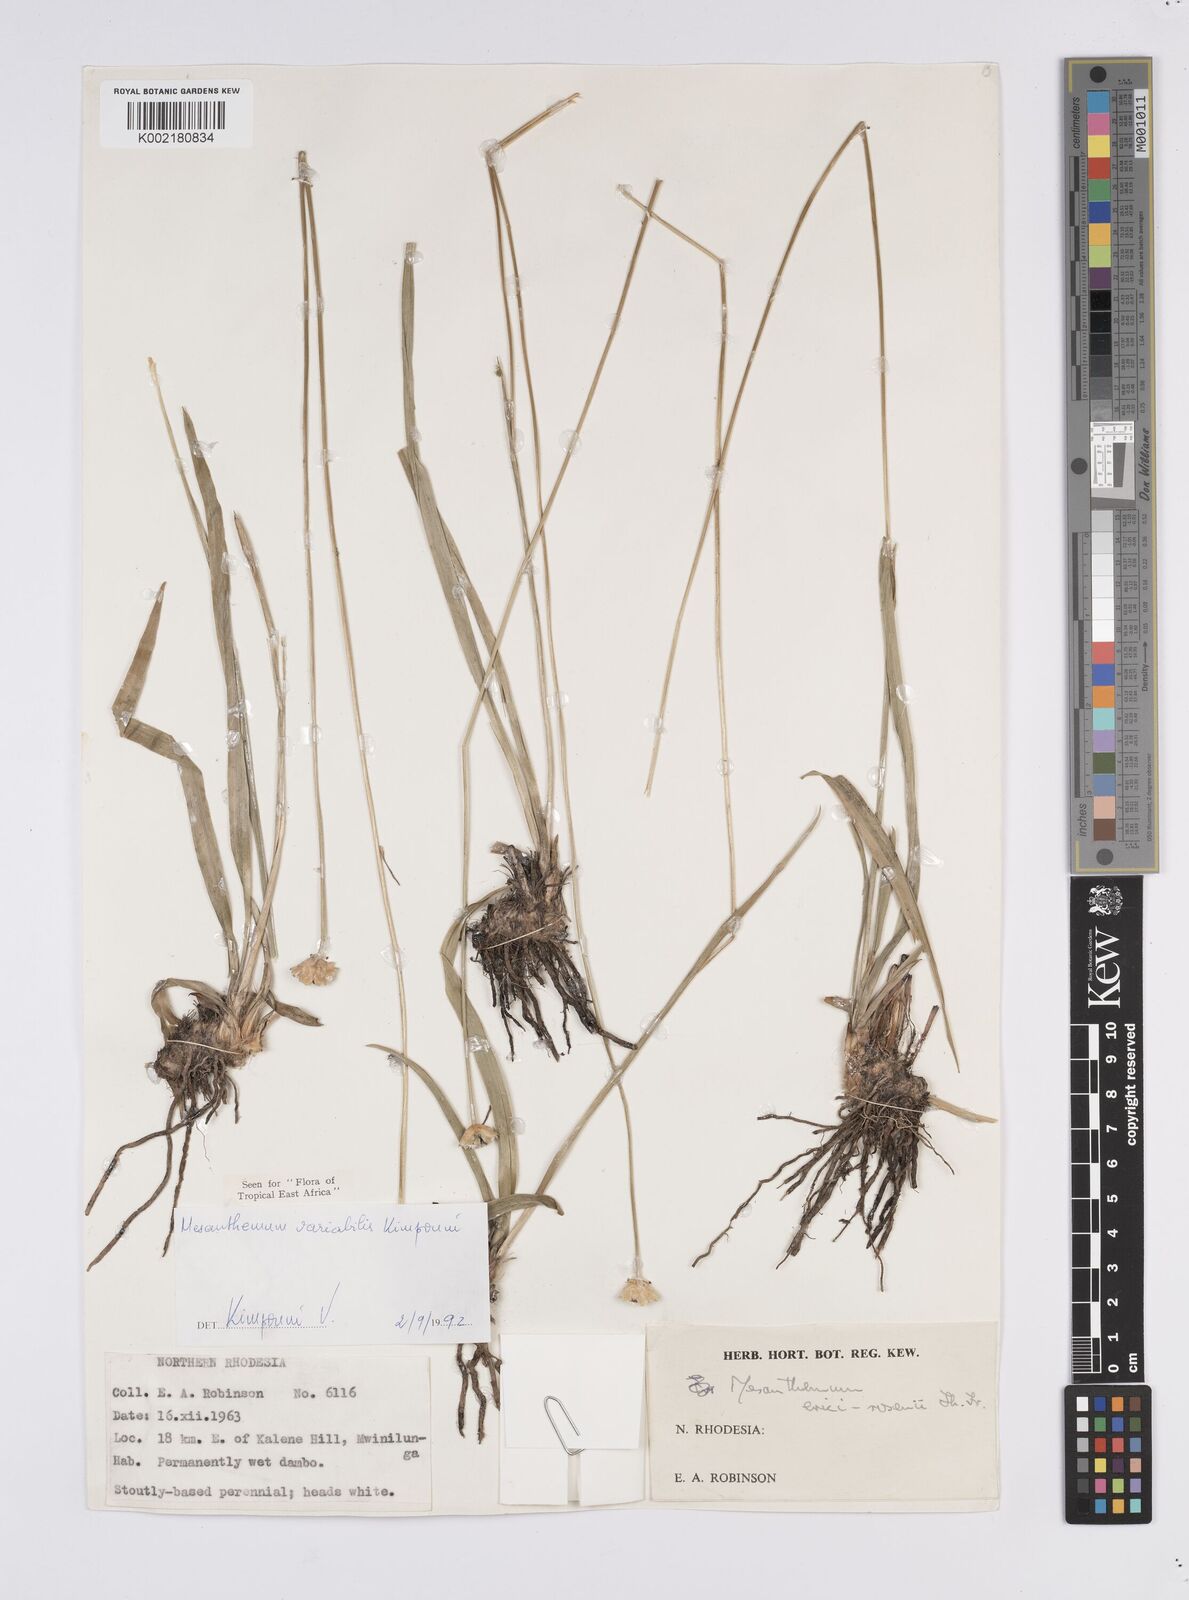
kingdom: Plantae
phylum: Tracheophyta
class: Liliopsida
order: Poales
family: Eriocaulaceae
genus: Mesanthemum
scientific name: Mesanthemum variabile
